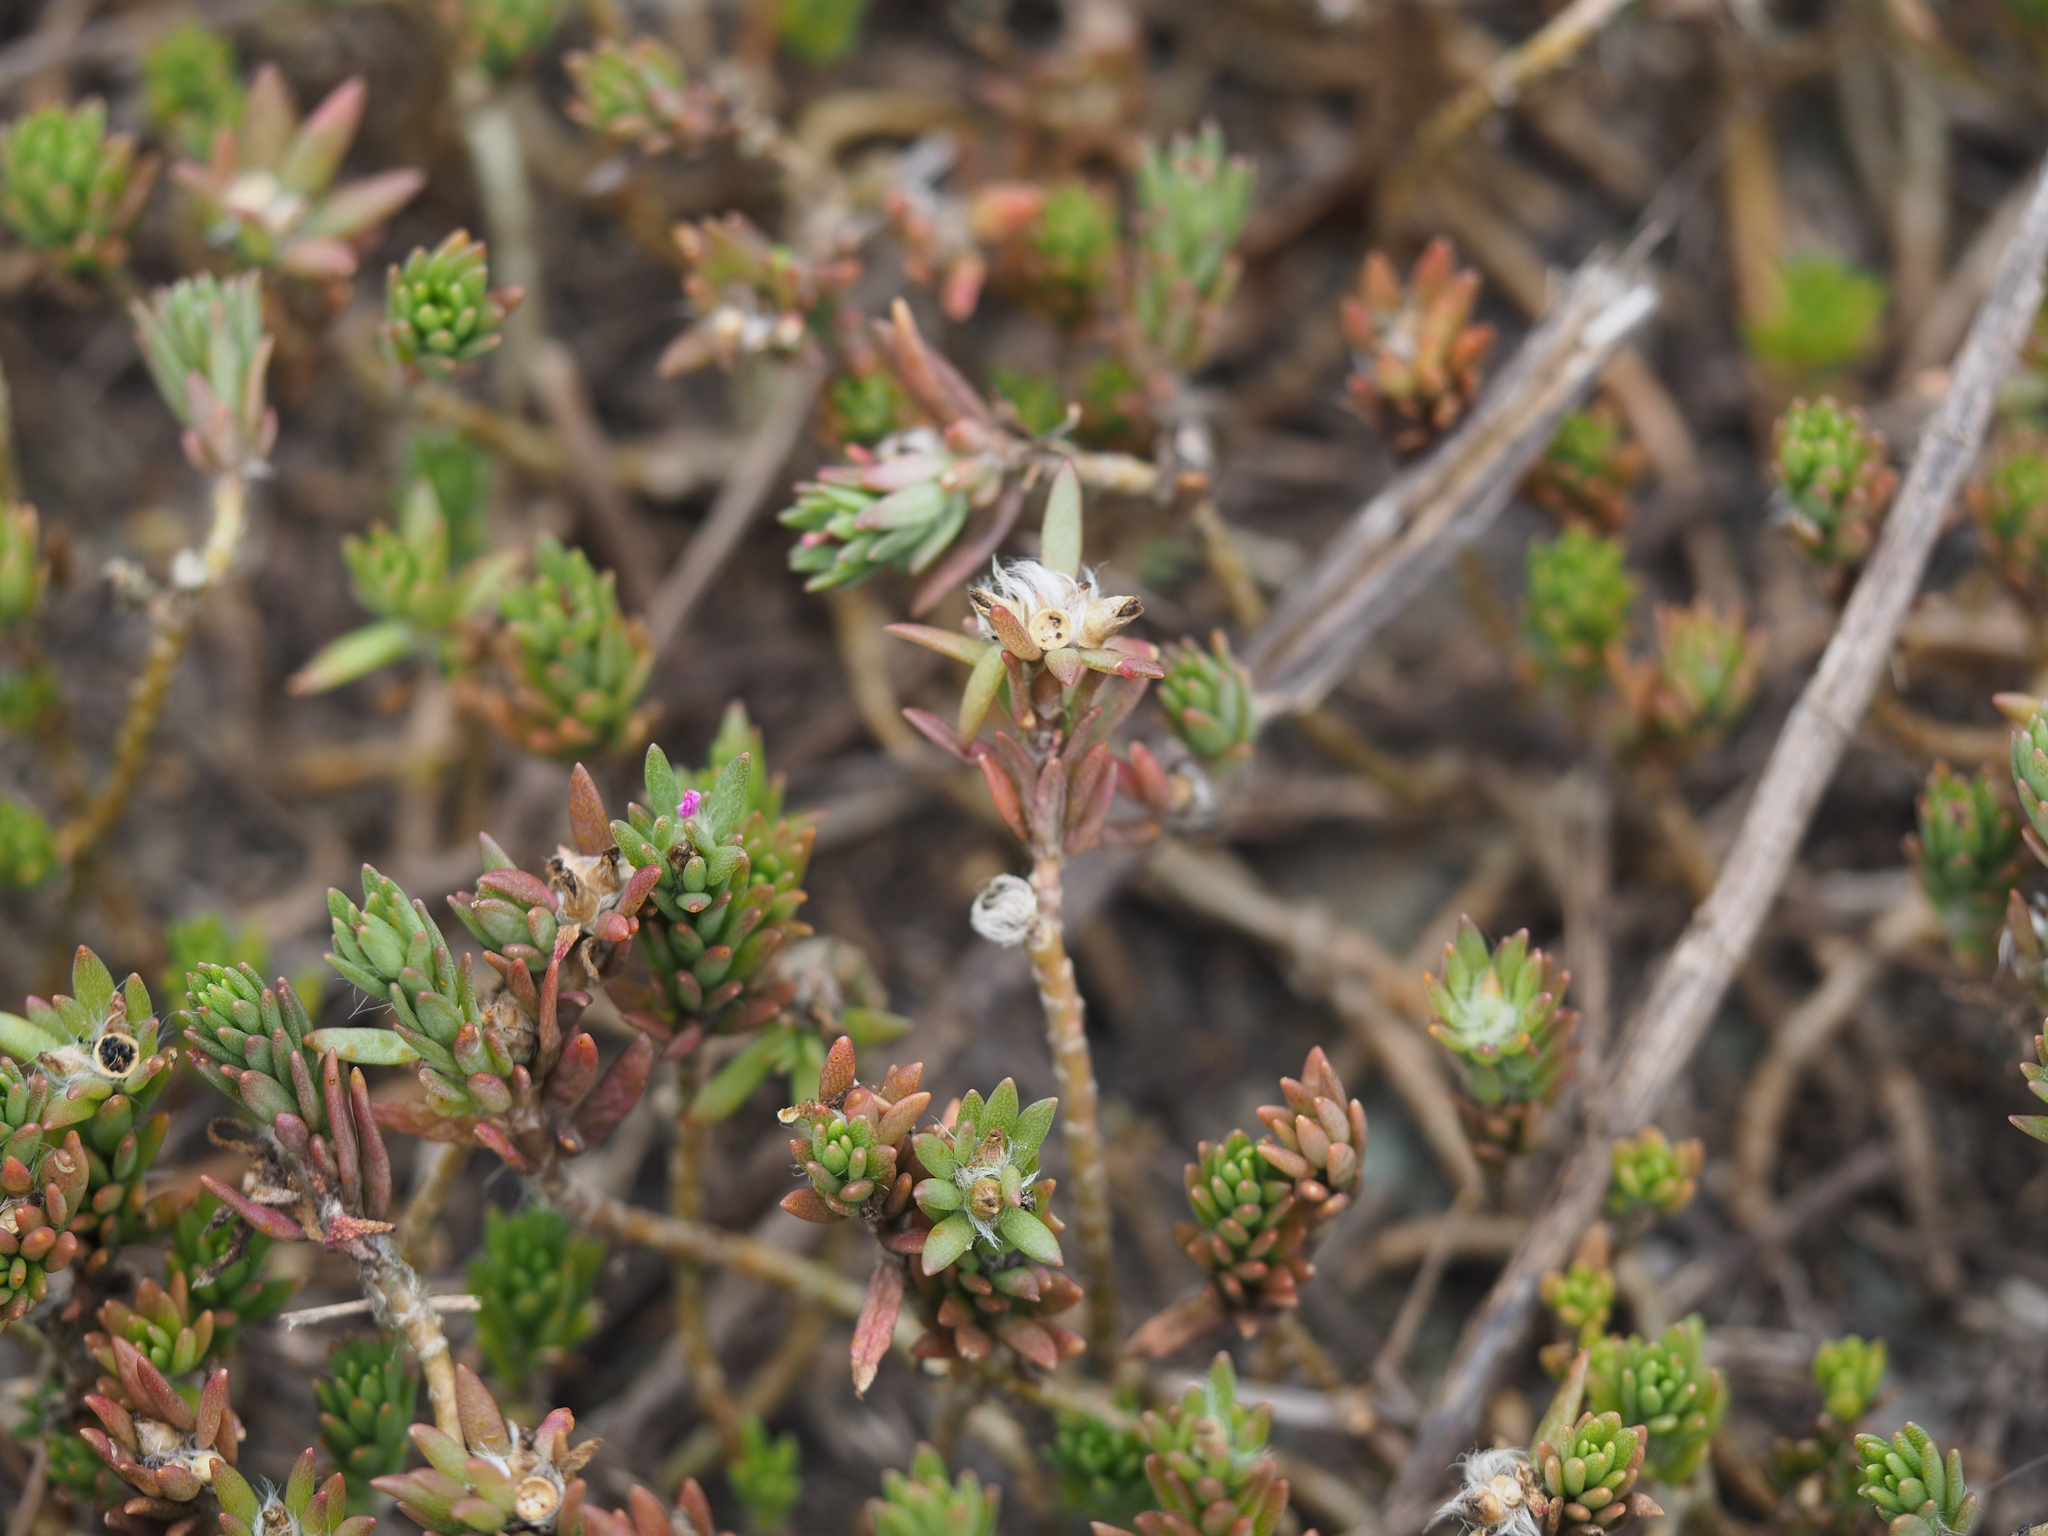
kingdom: Plantae
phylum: Tracheophyta
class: Magnoliopsida
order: Caryophyllales
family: Portulacaceae
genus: Portulaca
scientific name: Portulaca pilosa
